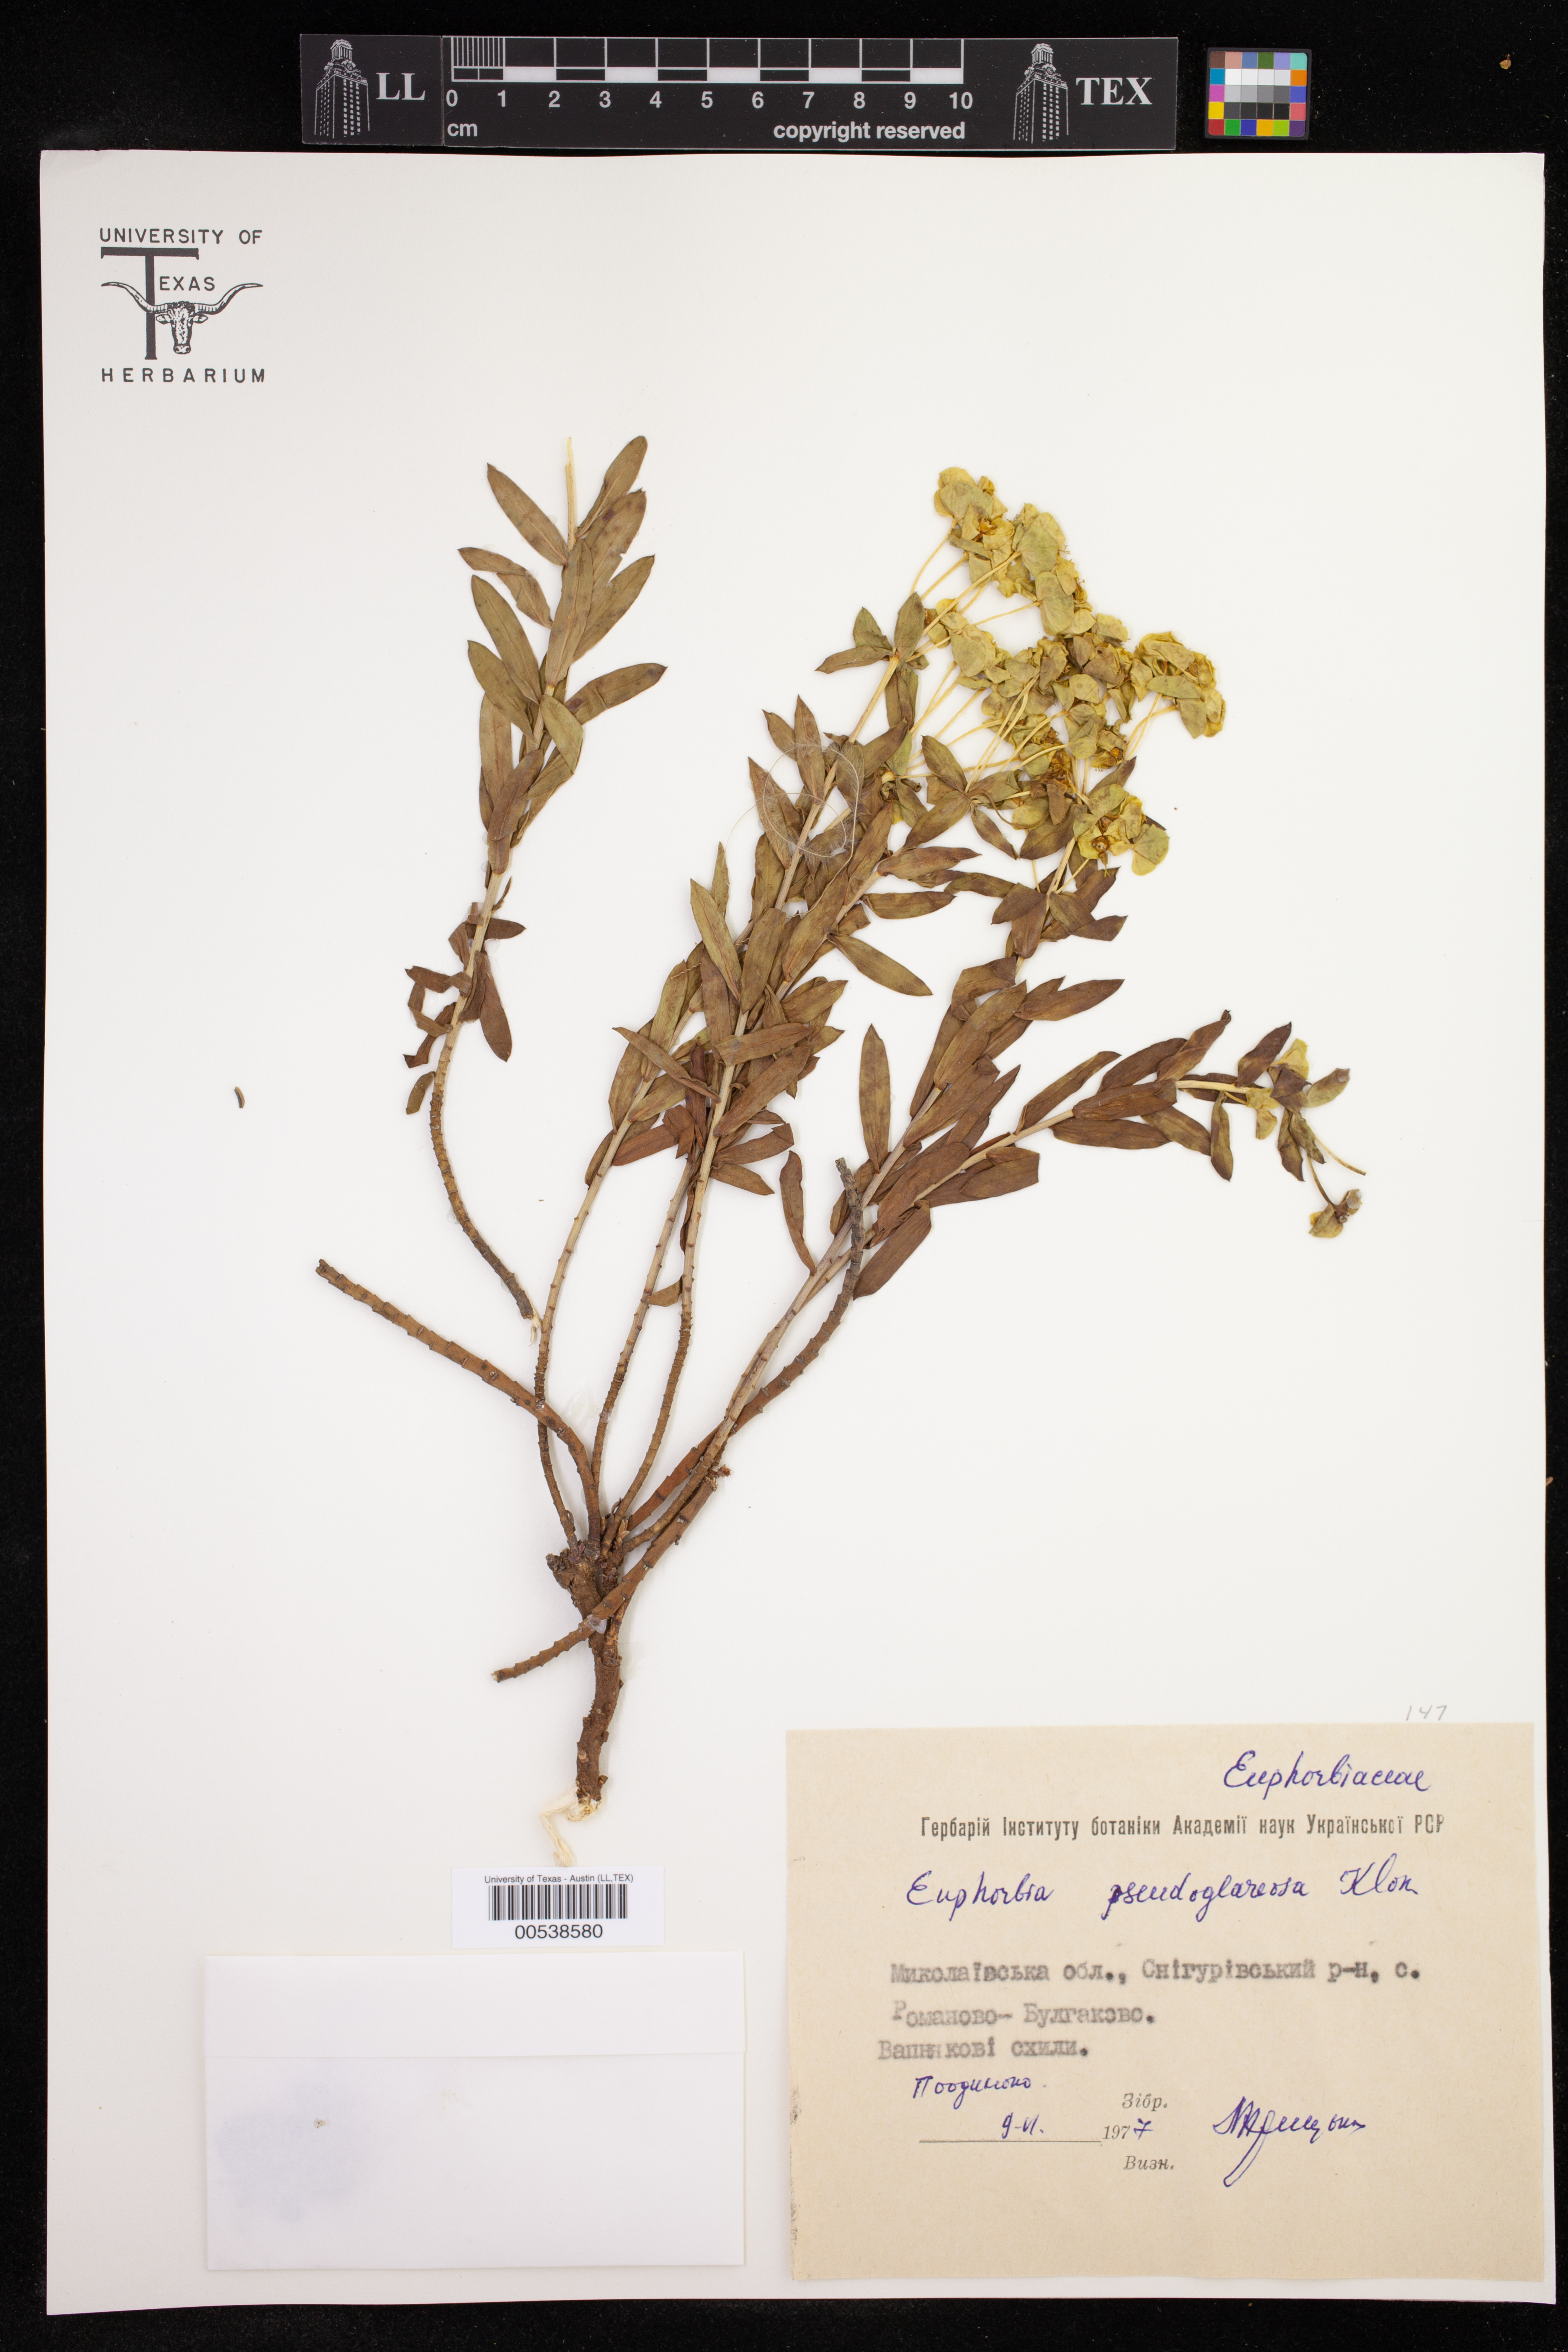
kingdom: Plantae
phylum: Tracheophyta
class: Magnoliopsida
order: Malpighiales
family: Euphorbiaceae
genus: Euphorbia
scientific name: Euphorbia goldei
